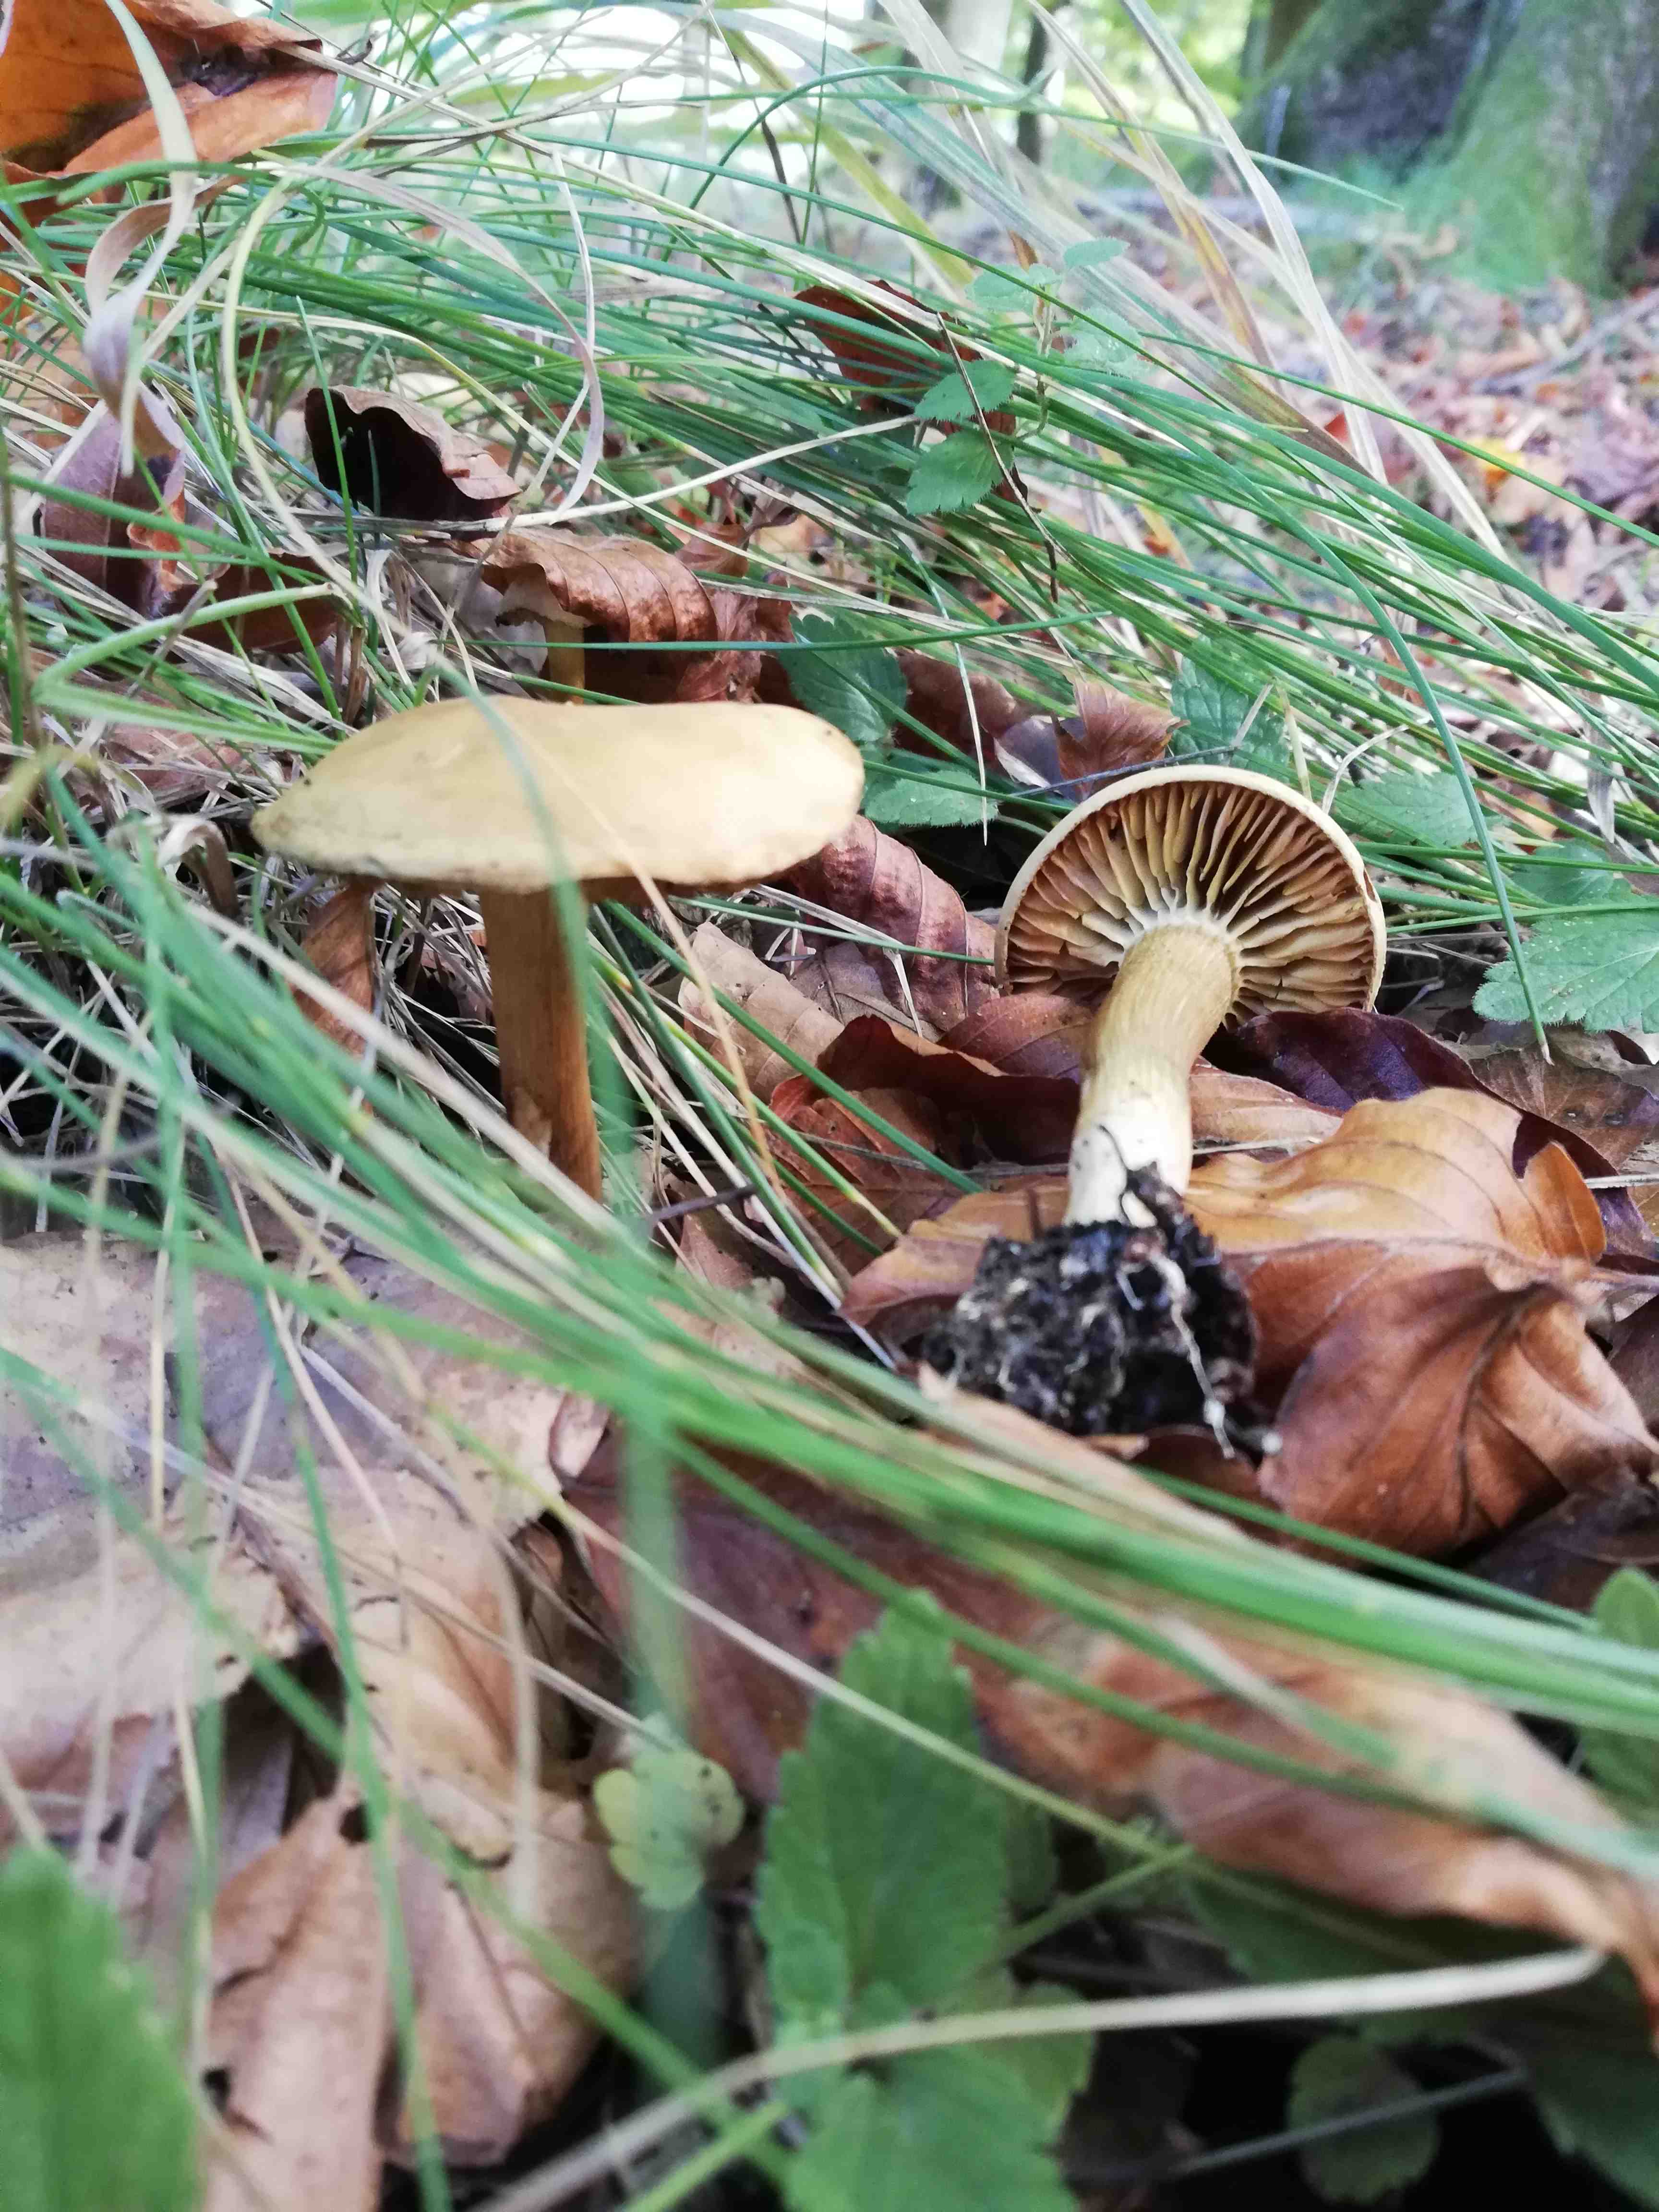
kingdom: Fungi
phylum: Basidiomycota
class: Agaricomycetes
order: Agaricales
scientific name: Agaricales
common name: champignonordenen
